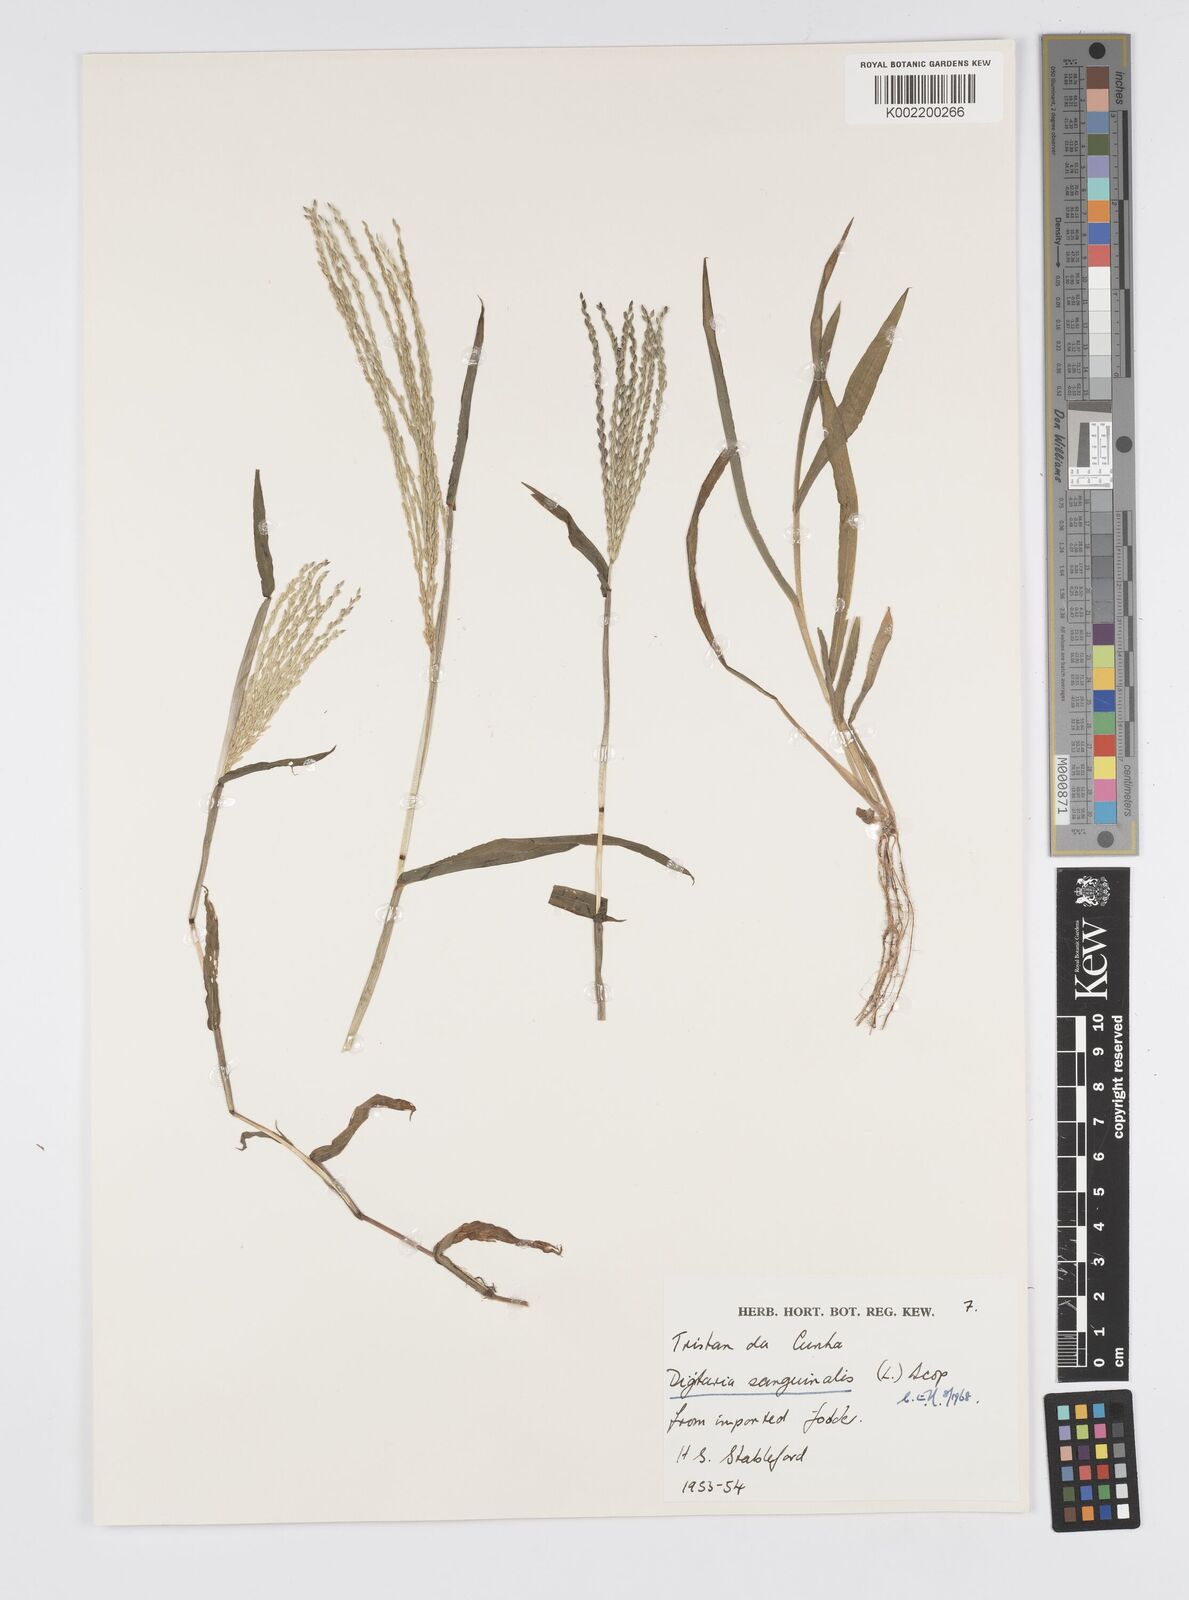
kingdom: Plantae
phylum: Tracheophyta
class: Liliopsida
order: Poales
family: Poaceae
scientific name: Poaceae
